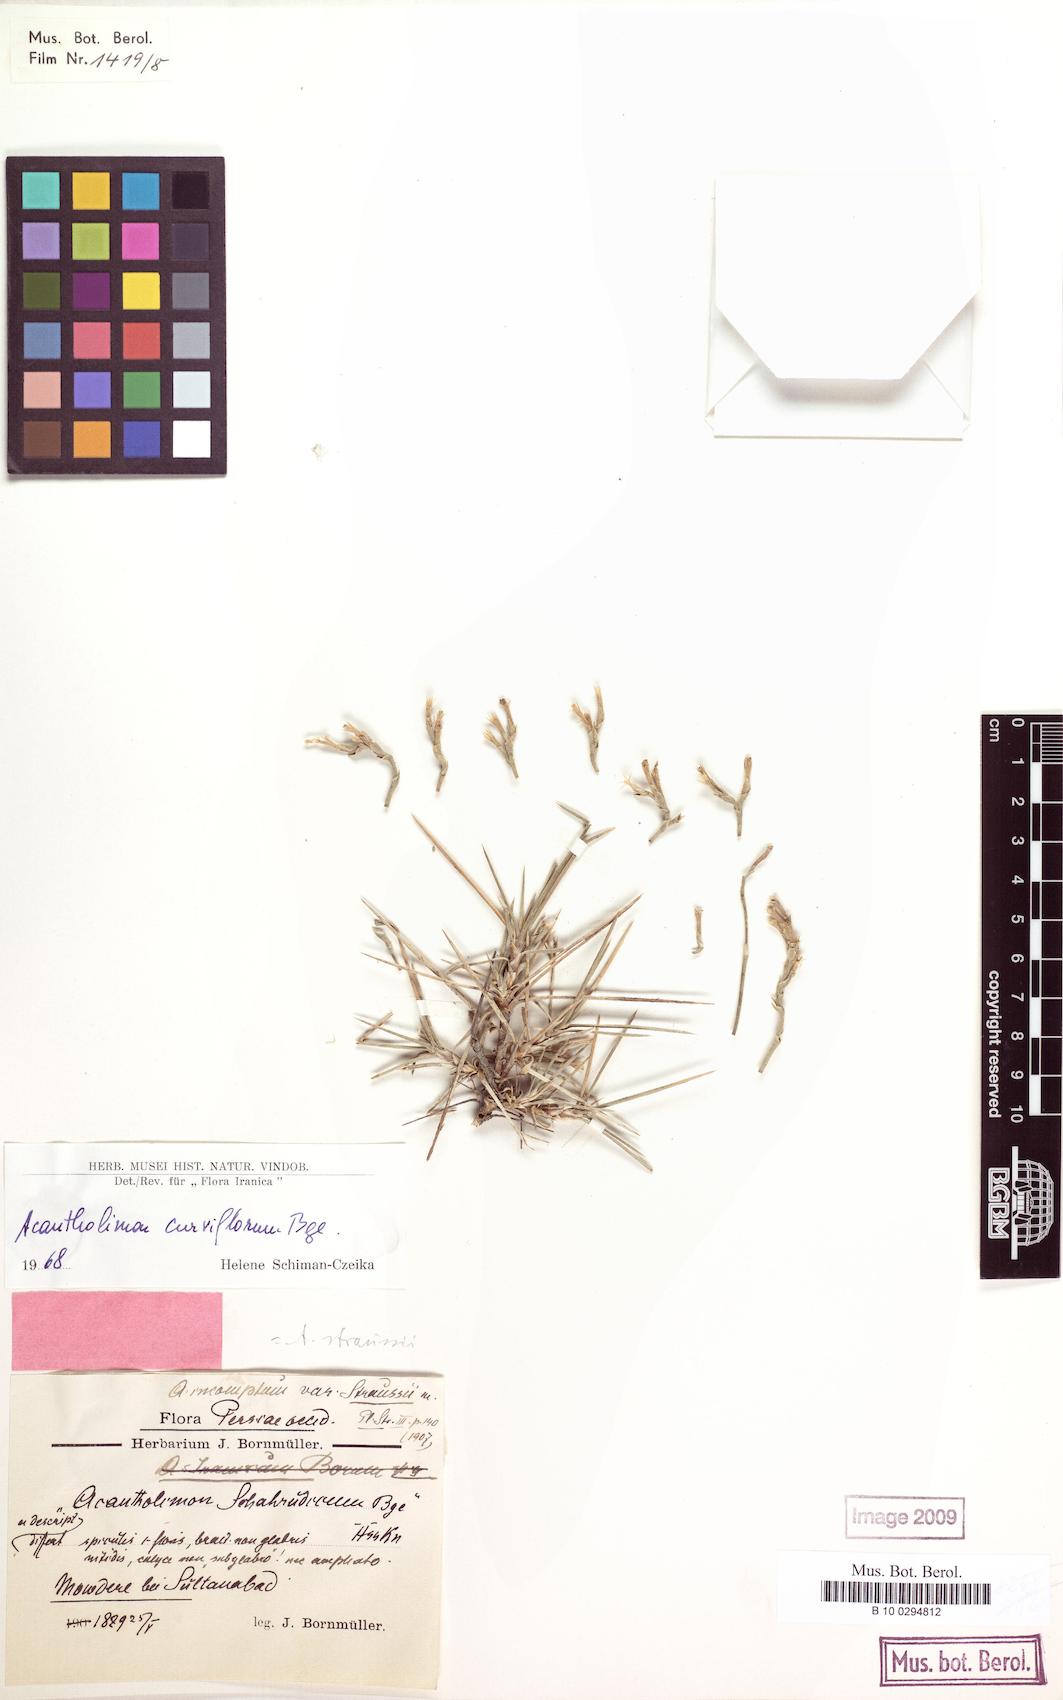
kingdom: Plantae
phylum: Tracheophyta
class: Magnoliopsida
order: Caryophyllales
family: Plumbaginaceae
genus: Acantholimon
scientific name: Acantholimon quinquelobum
